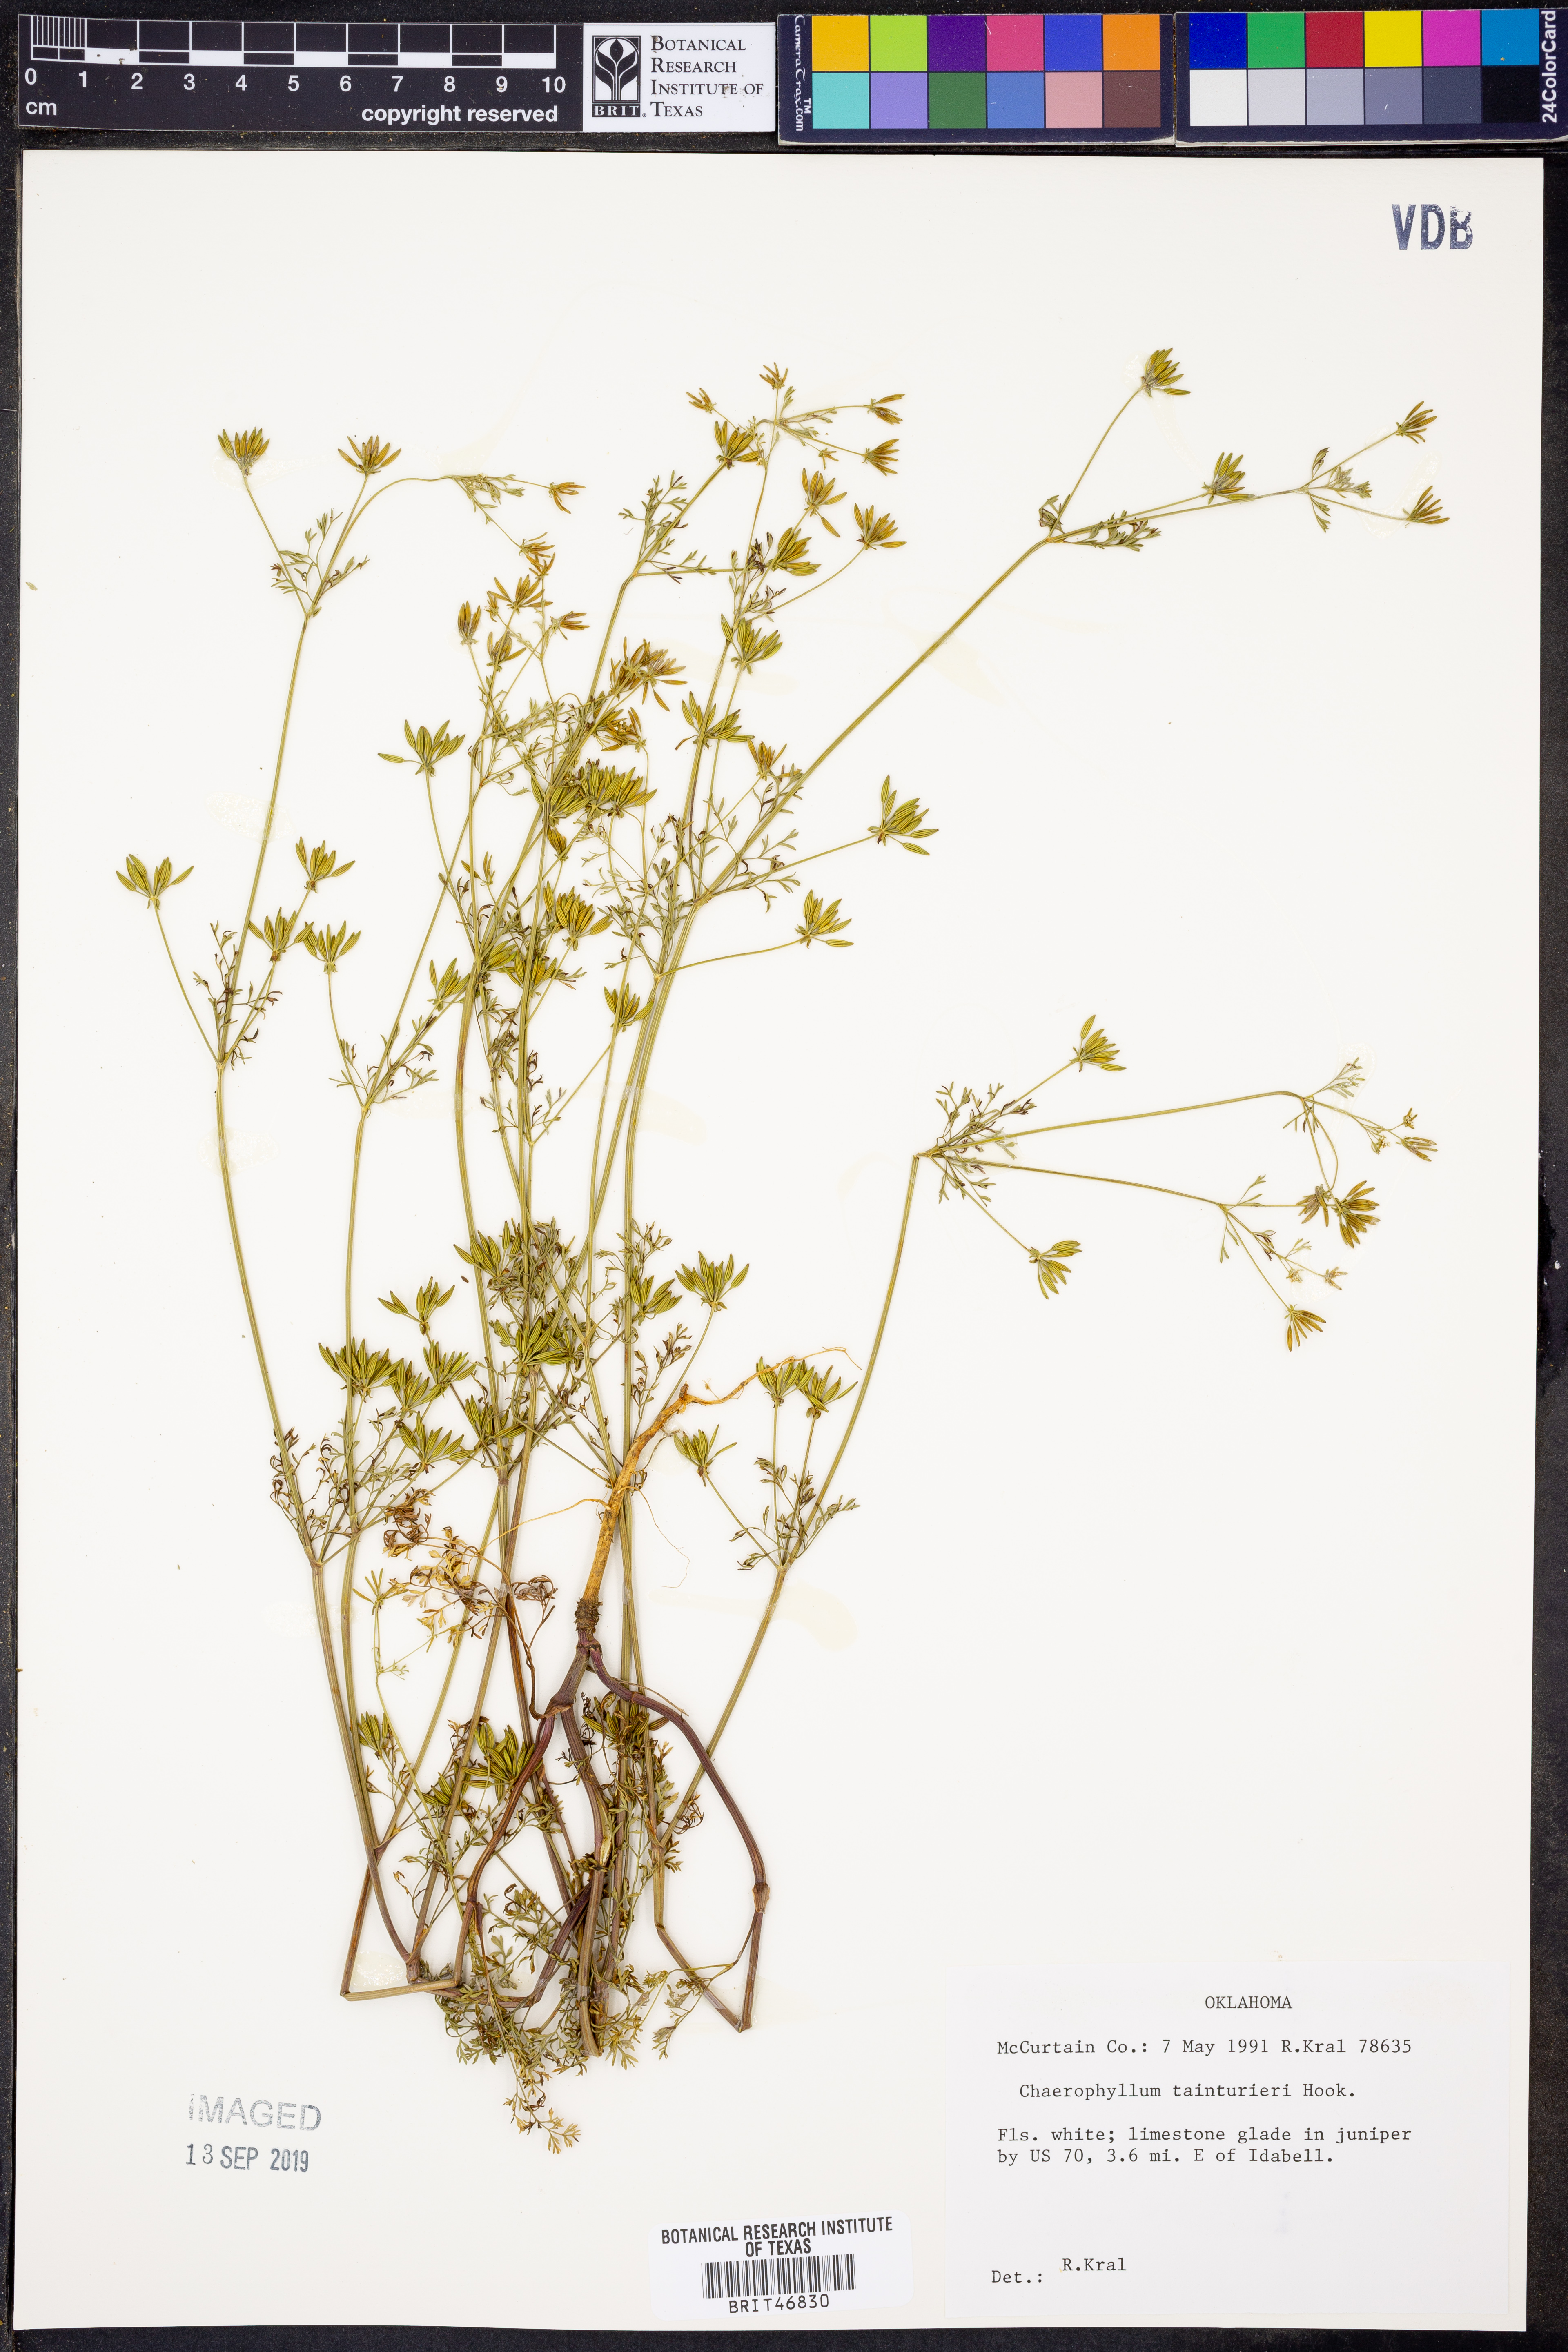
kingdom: Plantae
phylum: Tracheophyta
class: Magnoliopsida
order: Apiales
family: Apiaceae
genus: Chaerophyllum
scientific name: Chaerophyllum tainturieri
